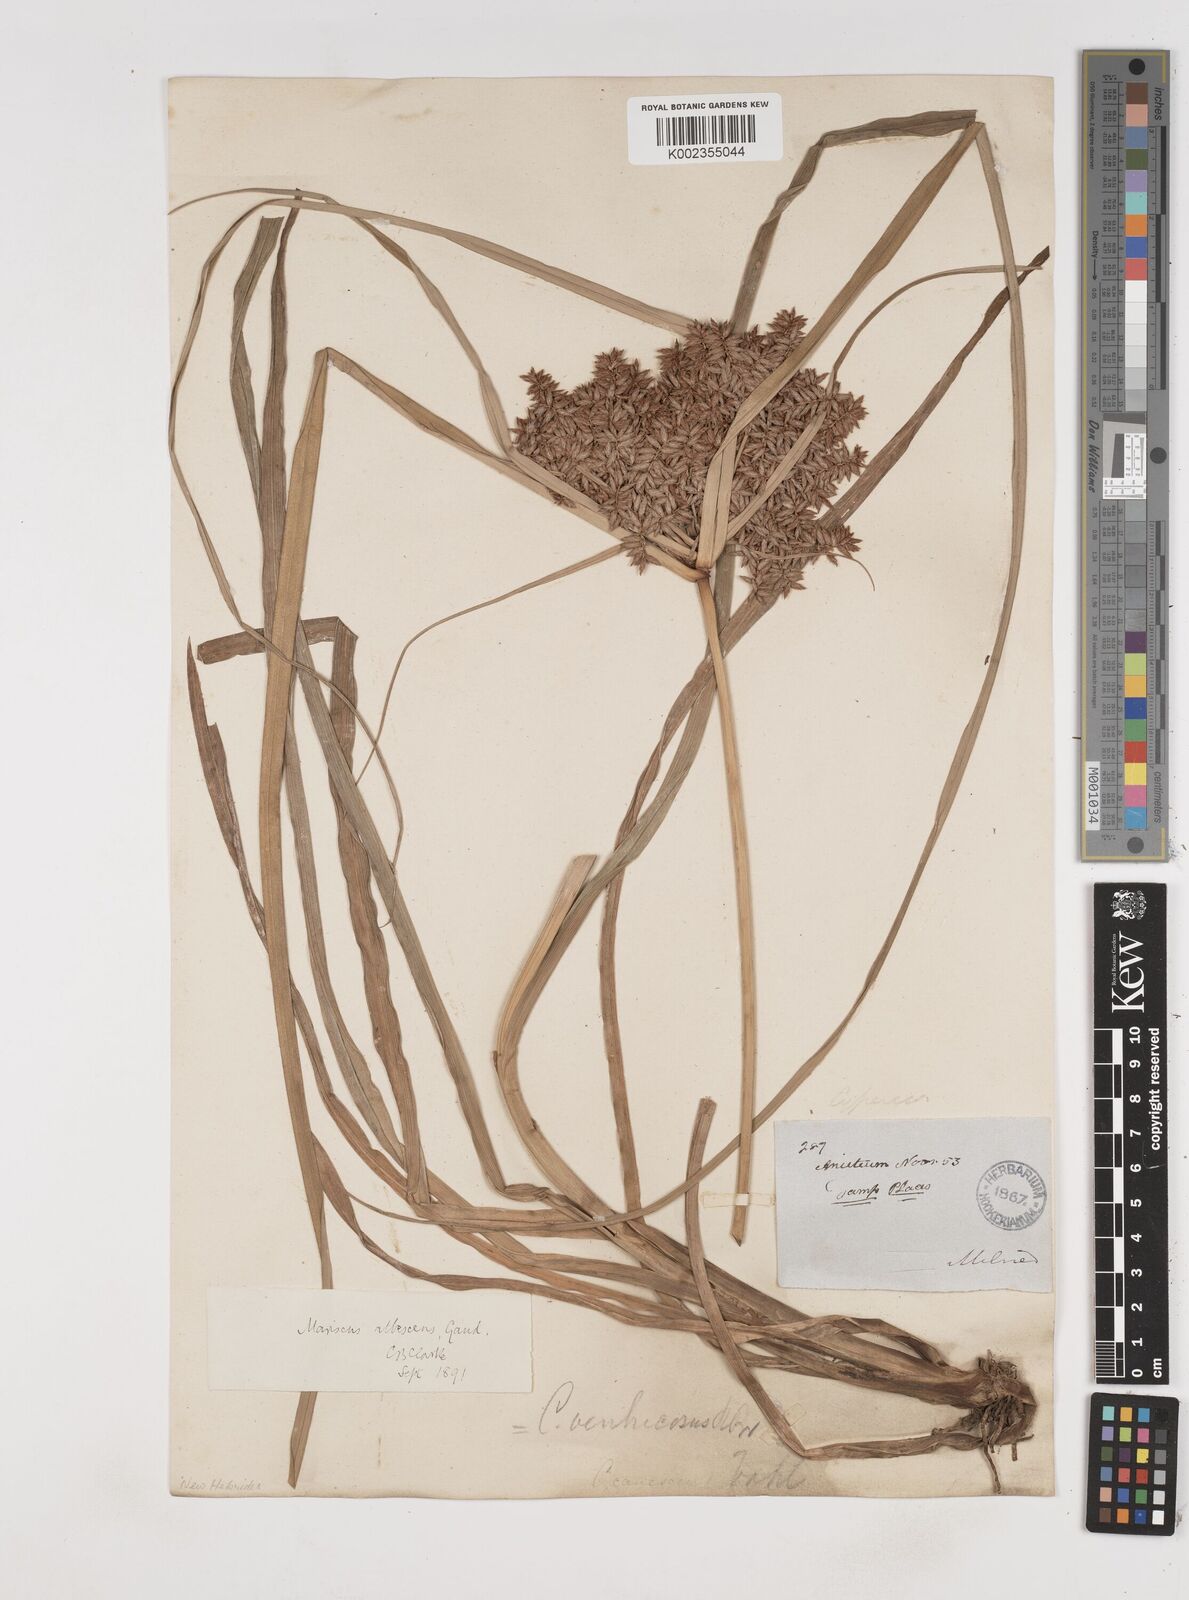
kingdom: Plantae
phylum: Tracheophyta
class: Liliopsida
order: Poales
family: Cyperaceae
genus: Cyperus
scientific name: Cyperus javanicus
